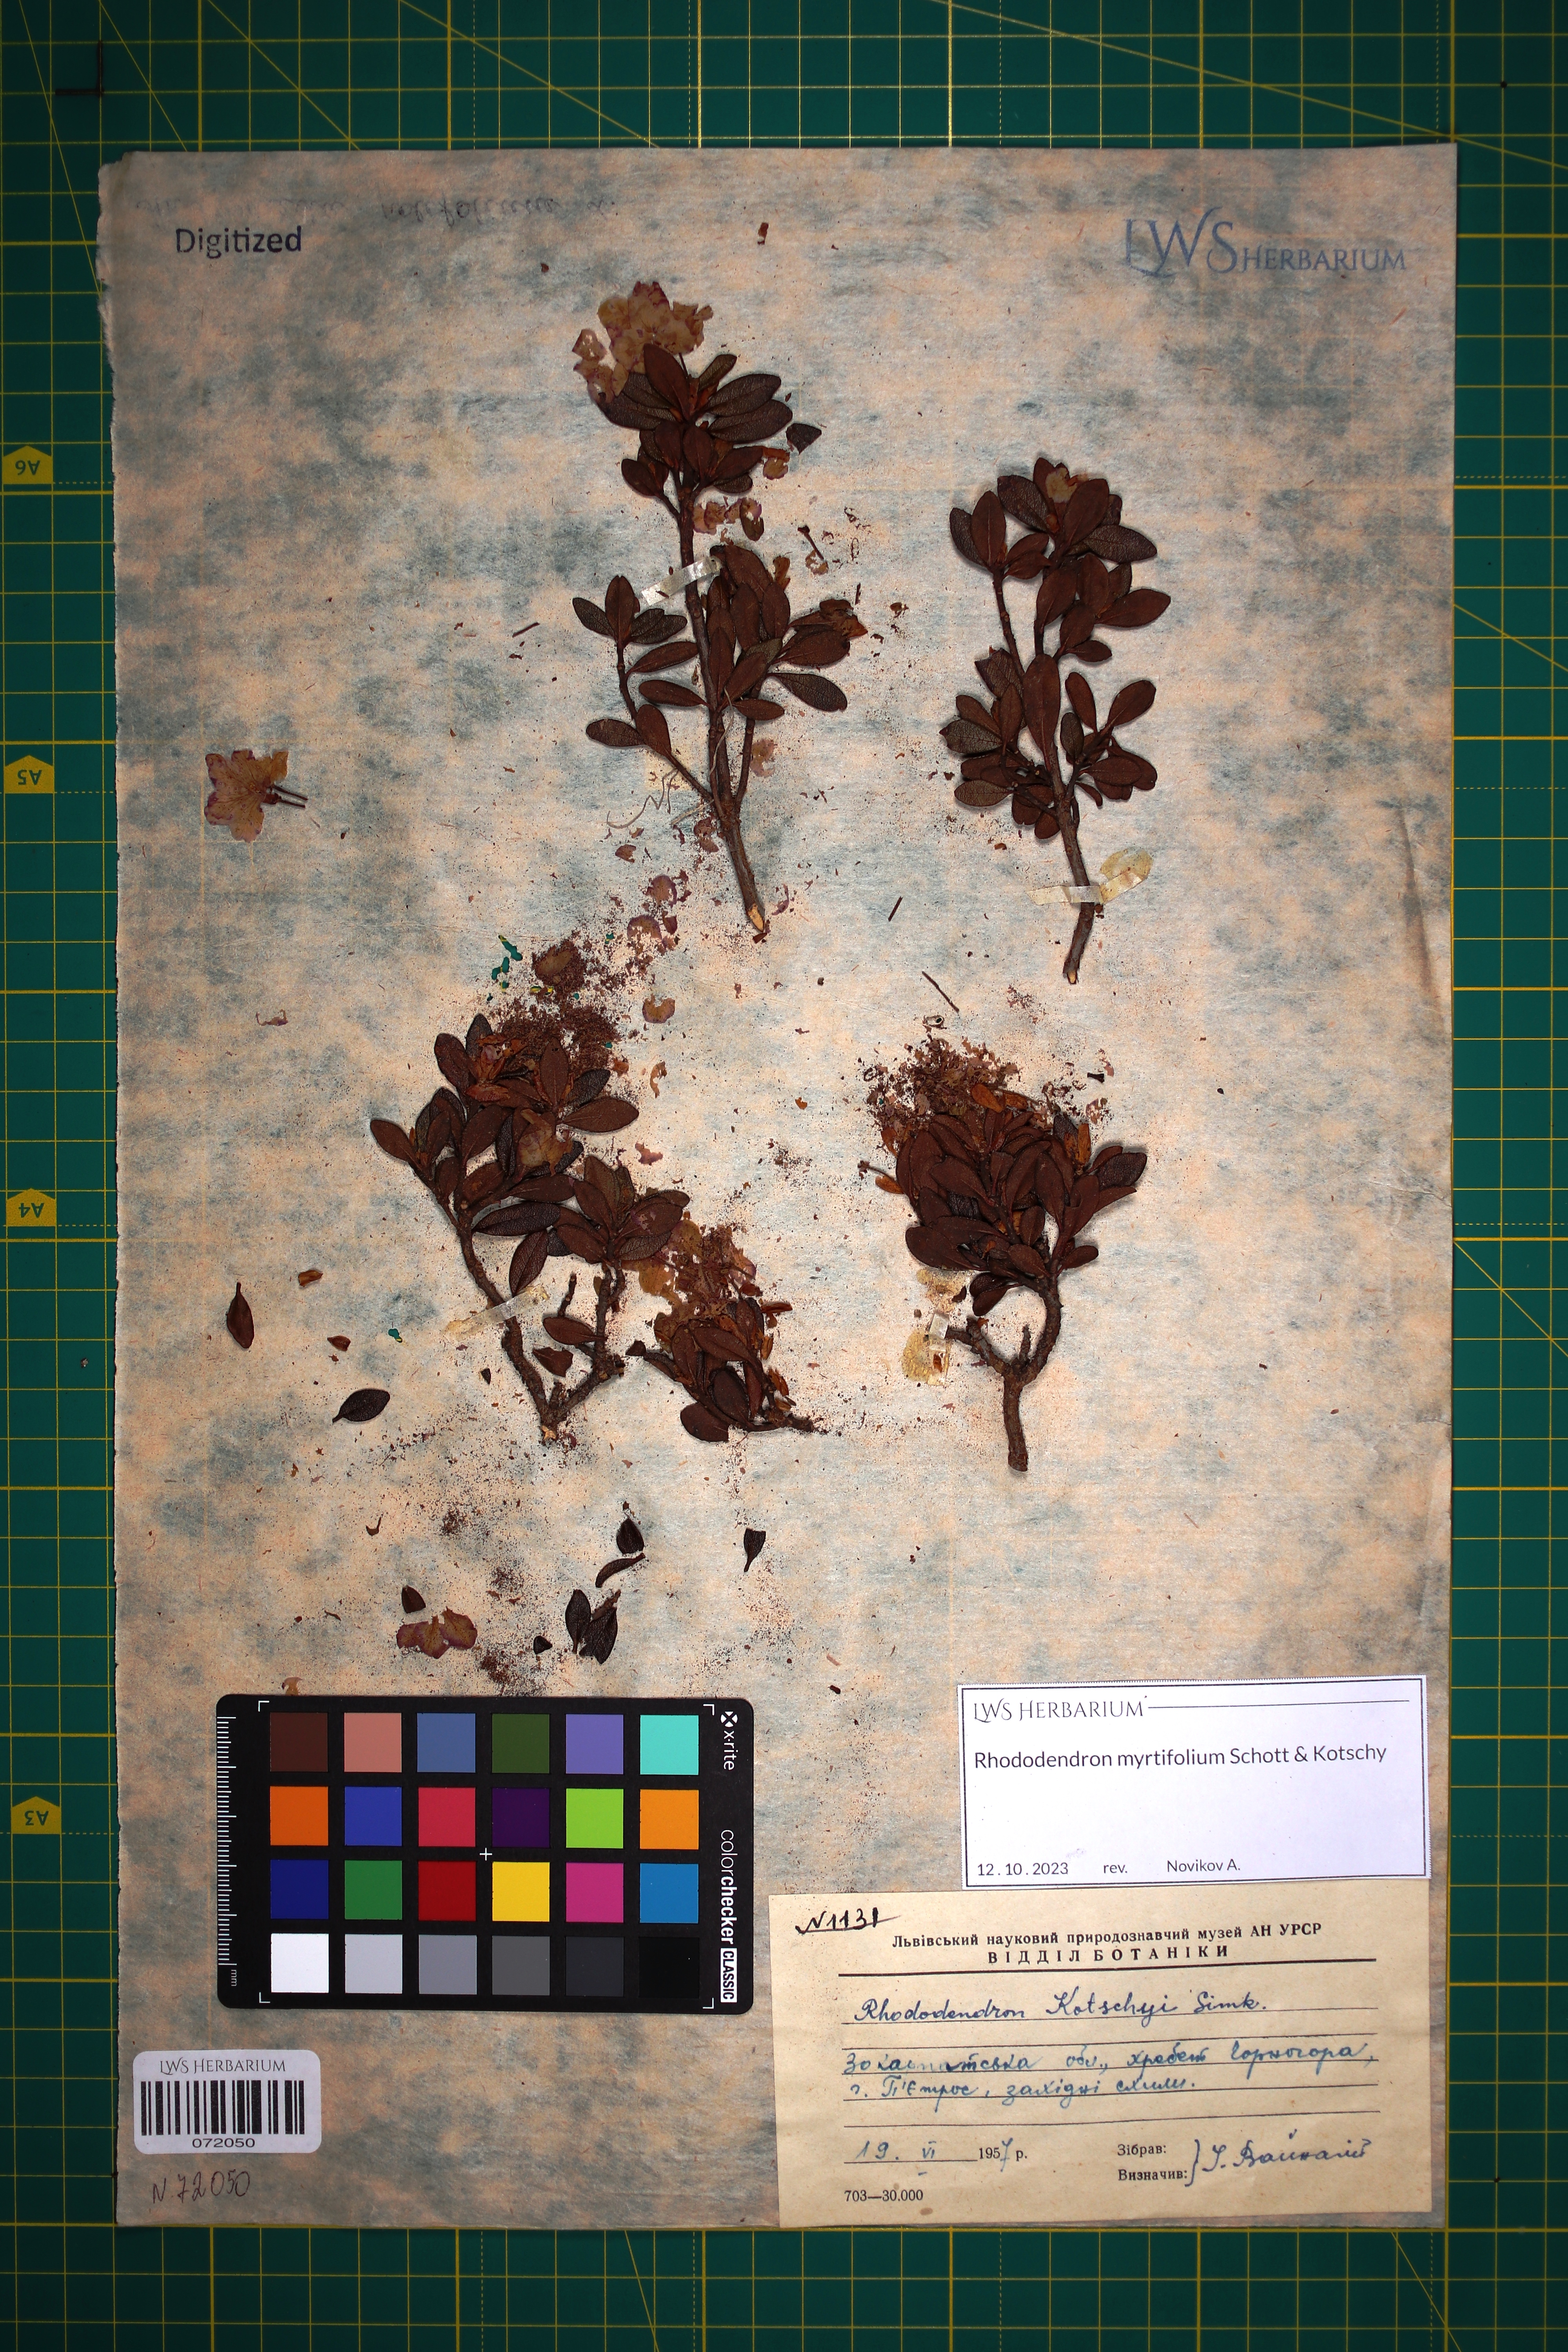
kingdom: Plantae
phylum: Tracheophyta
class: Magnoliopsida
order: Ericales
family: Ericaceae
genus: Rhododendron
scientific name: Rhododendron kotschyi
